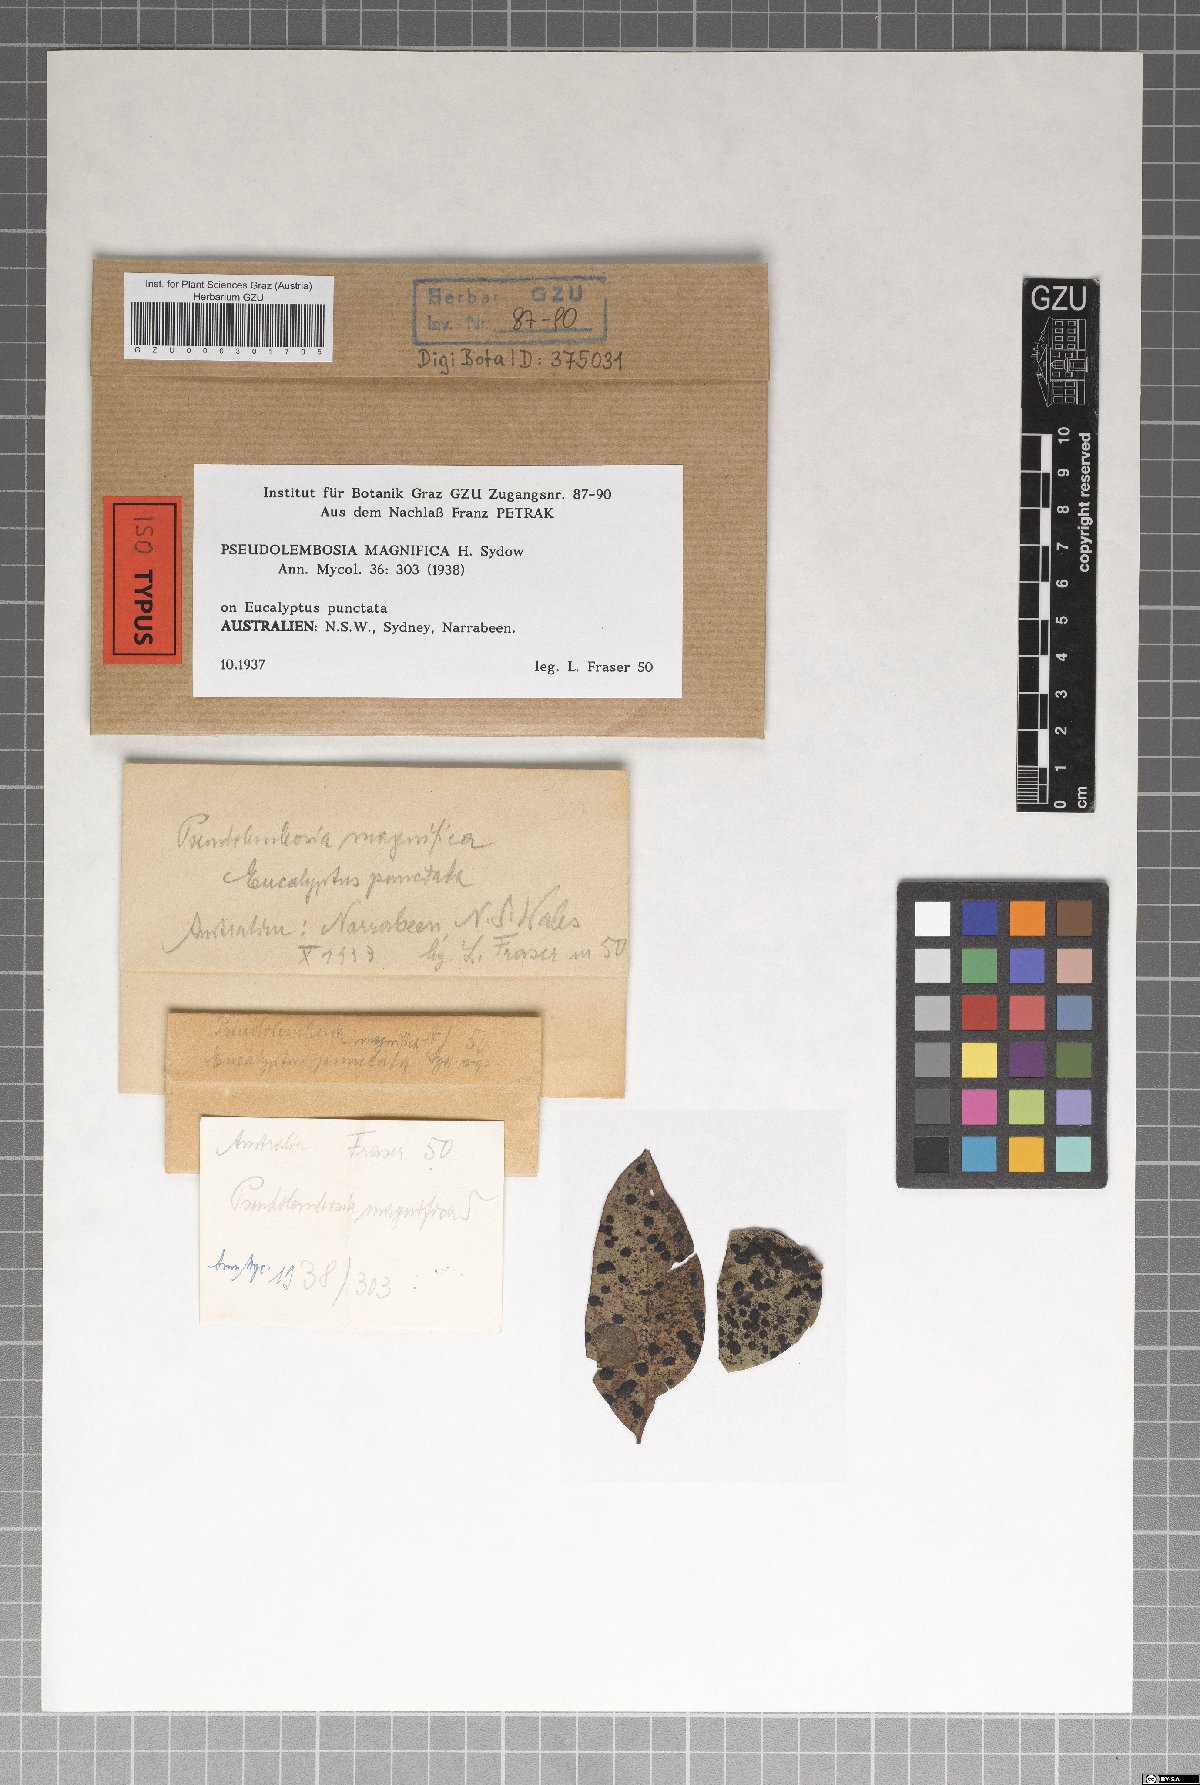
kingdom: Fungi
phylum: Ascomycota
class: Dothideomycetes
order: Asterinales
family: Parmulariaceae
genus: Pseudolembosia
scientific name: Pseudolembosia magnifica
